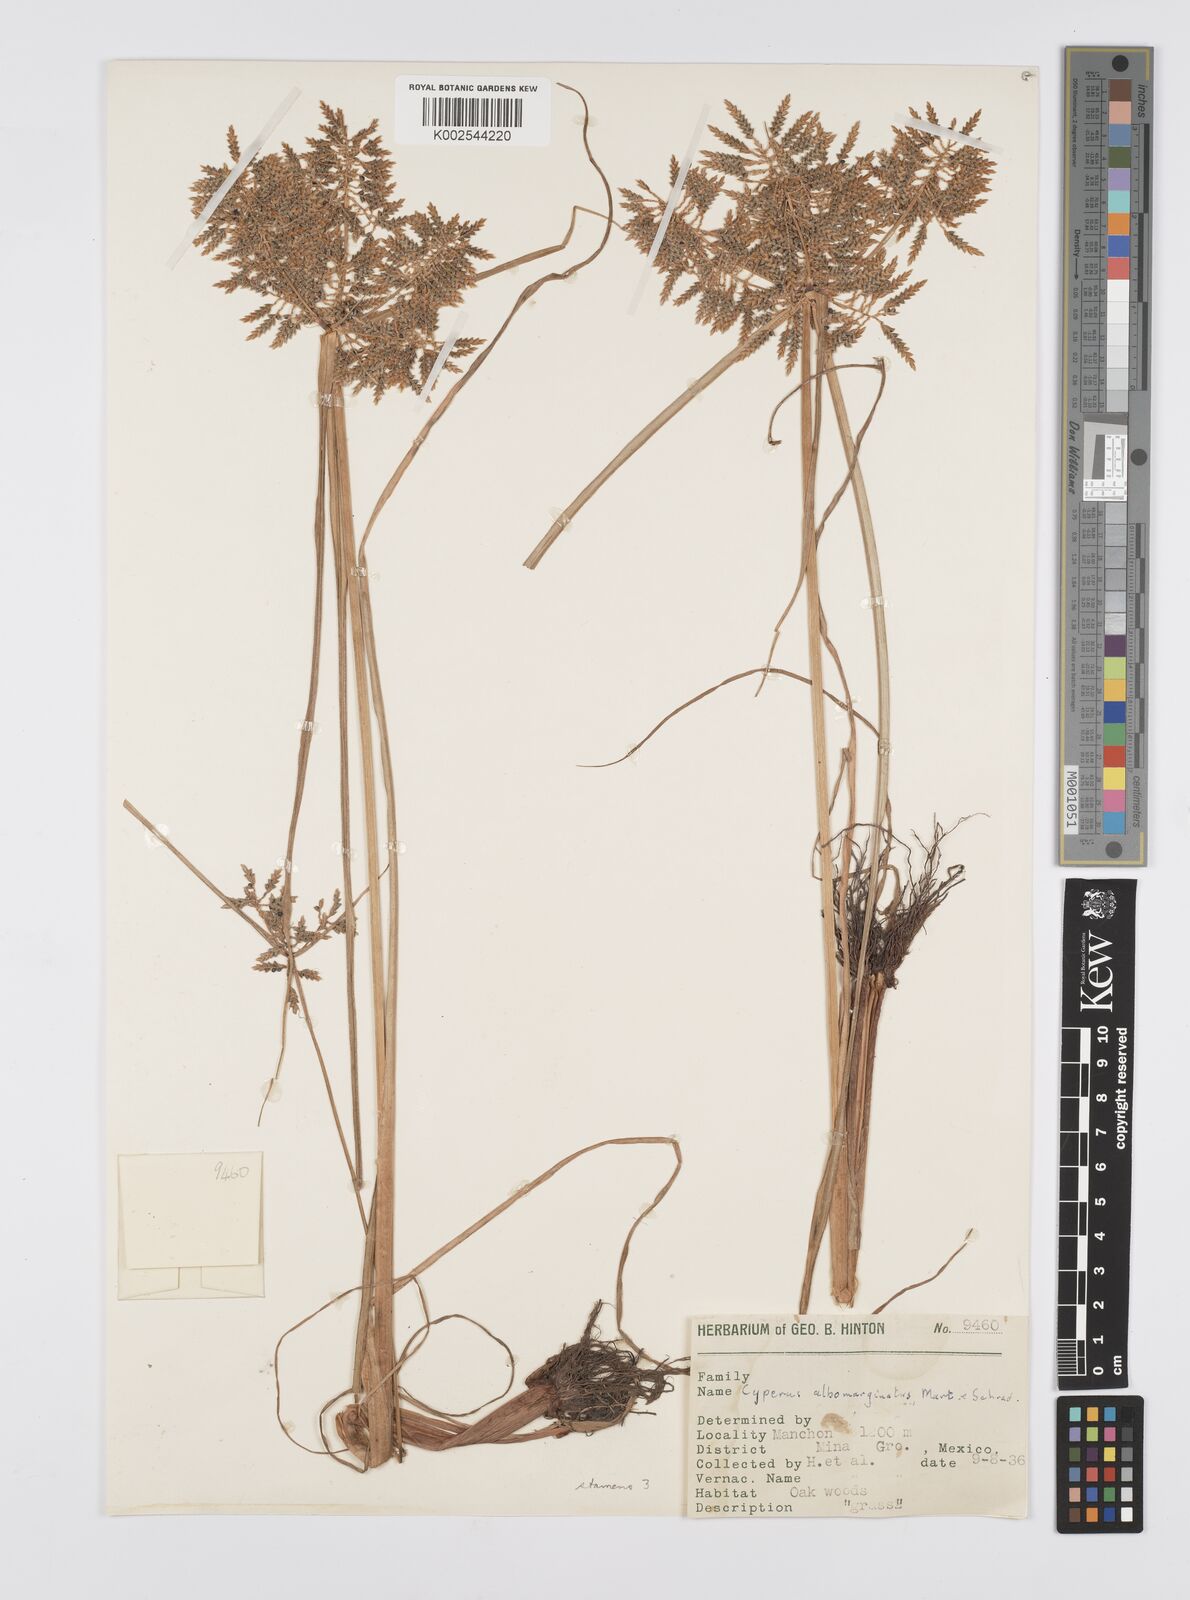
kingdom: Plantae
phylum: Tracheophyta
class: Liliopsida
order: Poales
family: Cyperaceae
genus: Cyperus
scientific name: Cyperus macrostachyos
